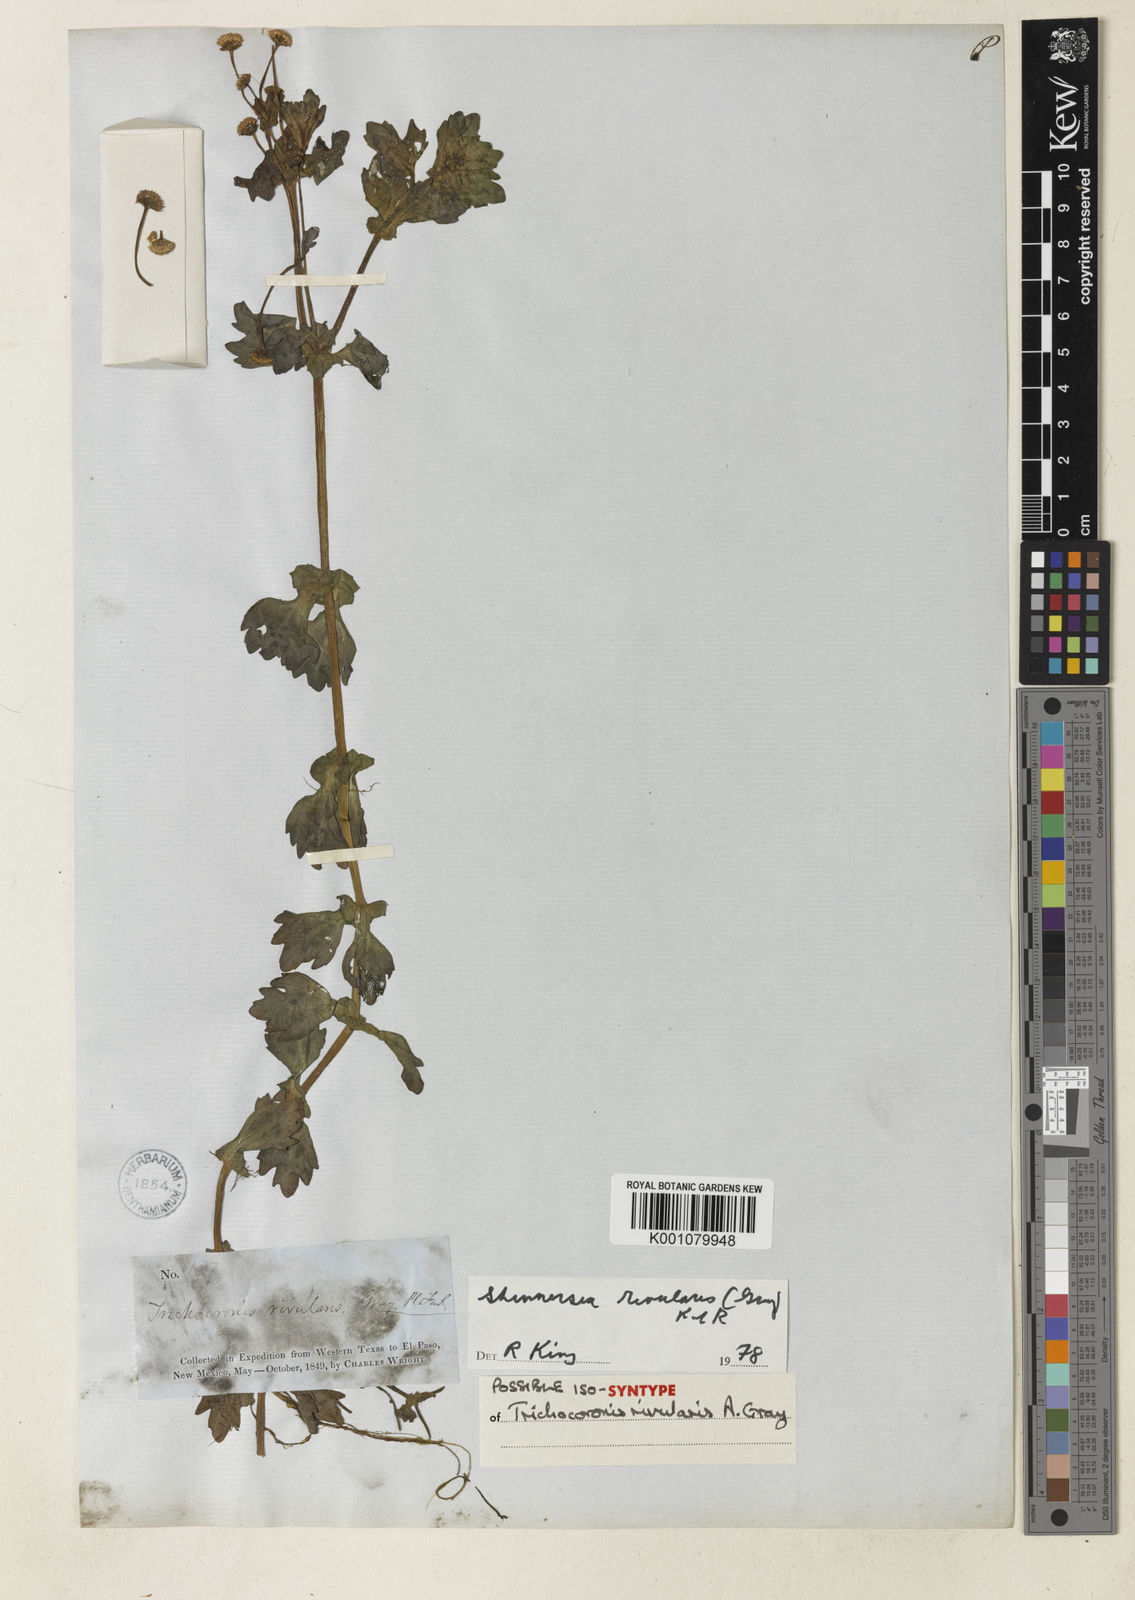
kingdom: Plantae
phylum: Tracheophyta
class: Magnoliopsida
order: Asterales
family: Asteraceae
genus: Shinnersia
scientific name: Shinnersia rivularis
